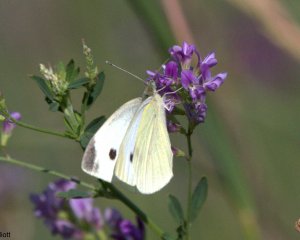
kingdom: Animalia
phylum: Arthropoda
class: Insecta
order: Lepidoptera
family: Pieridae
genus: Pieris
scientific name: Pieris rapae
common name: Cabbage White
